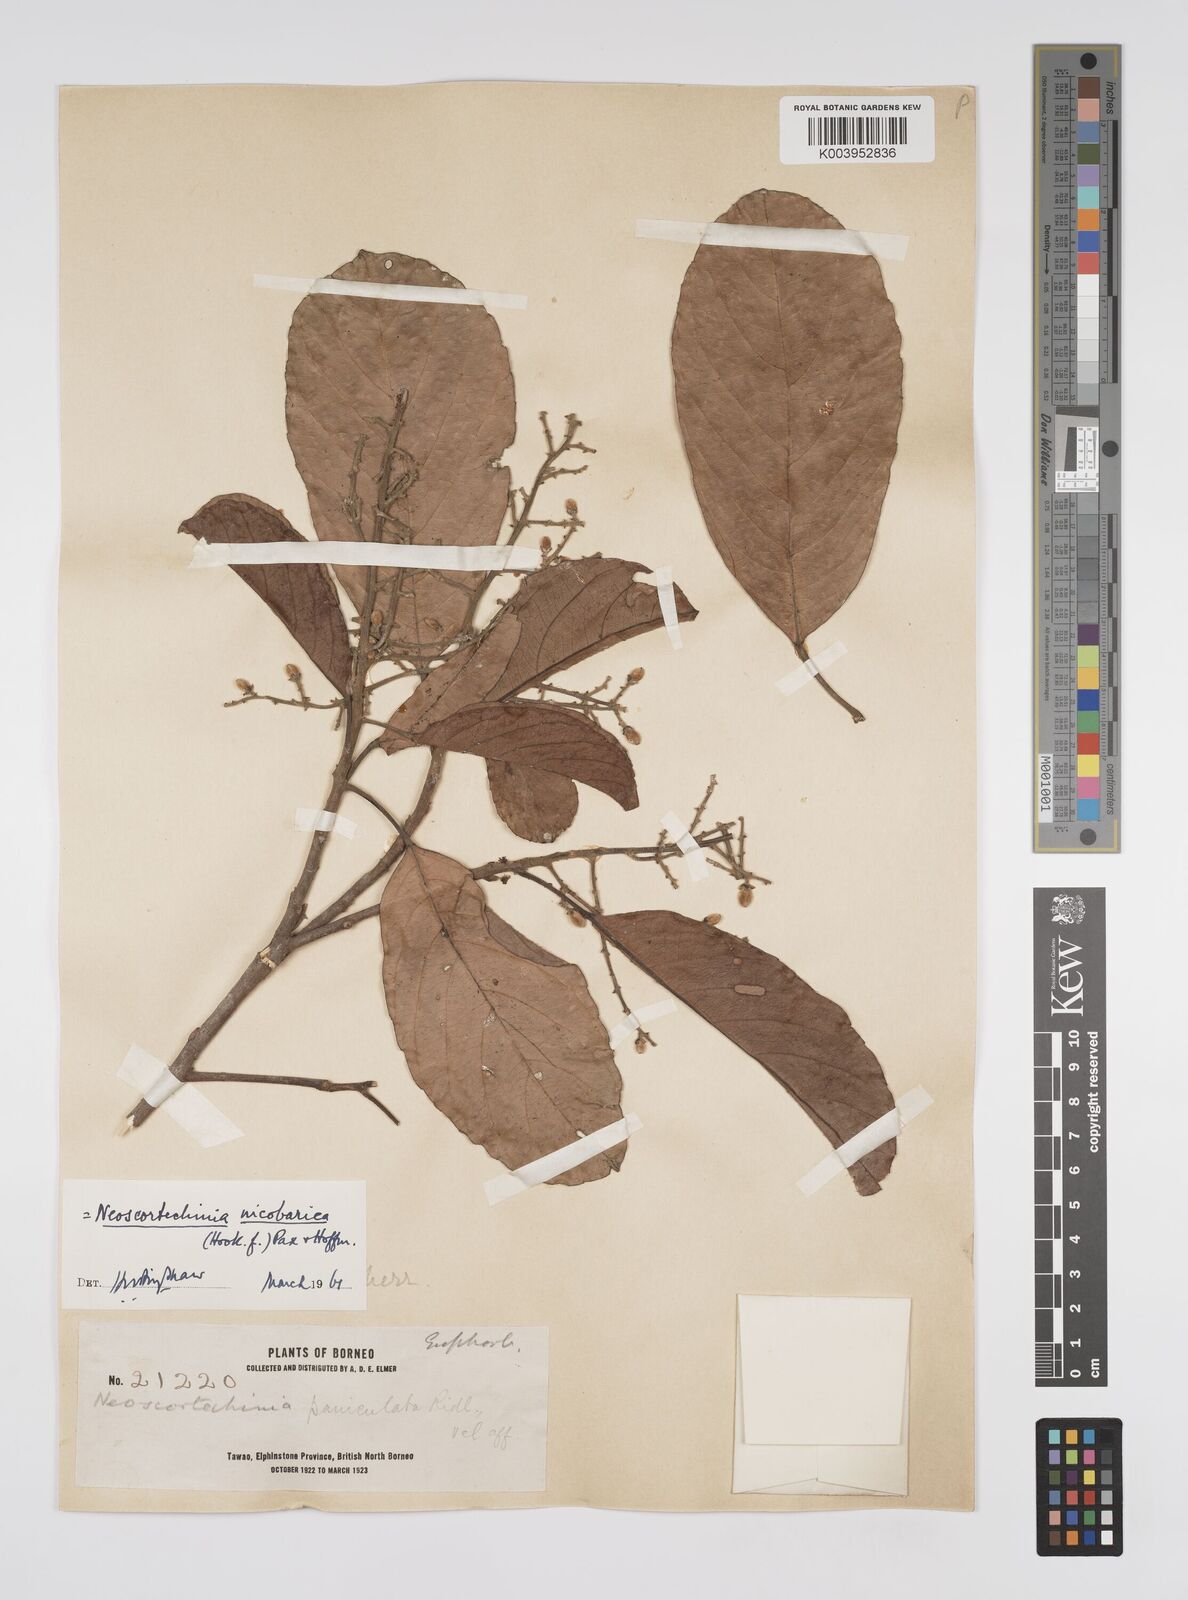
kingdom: Plantae
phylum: Tracheophyta
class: Magnoliopsida
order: Malpighiales
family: Euphorbiaceae
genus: Neoscortechinia
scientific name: Neoscortechinia nicobarica
